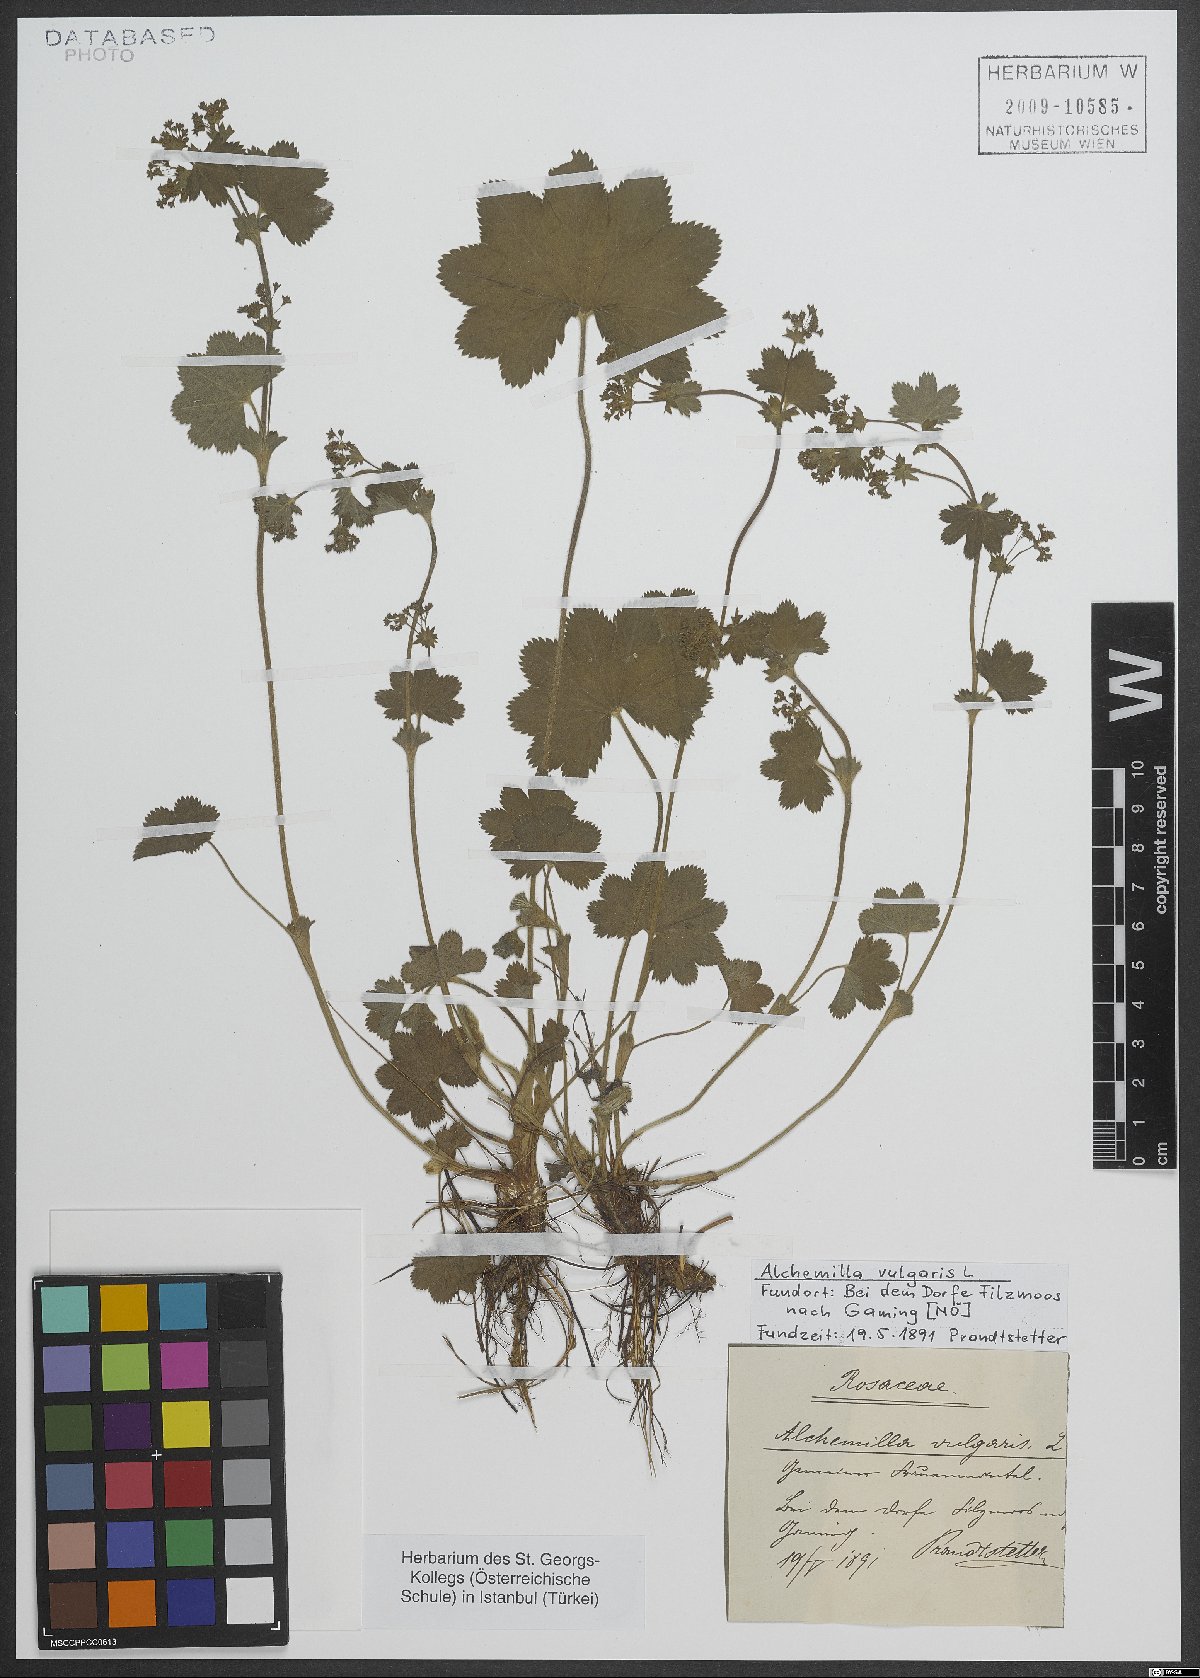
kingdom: Plantae
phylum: Tracheophyta
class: Magnoliopsida
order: Rosales
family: Rosaceae
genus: Alchemilla
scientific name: Alchemilla vulgaris
